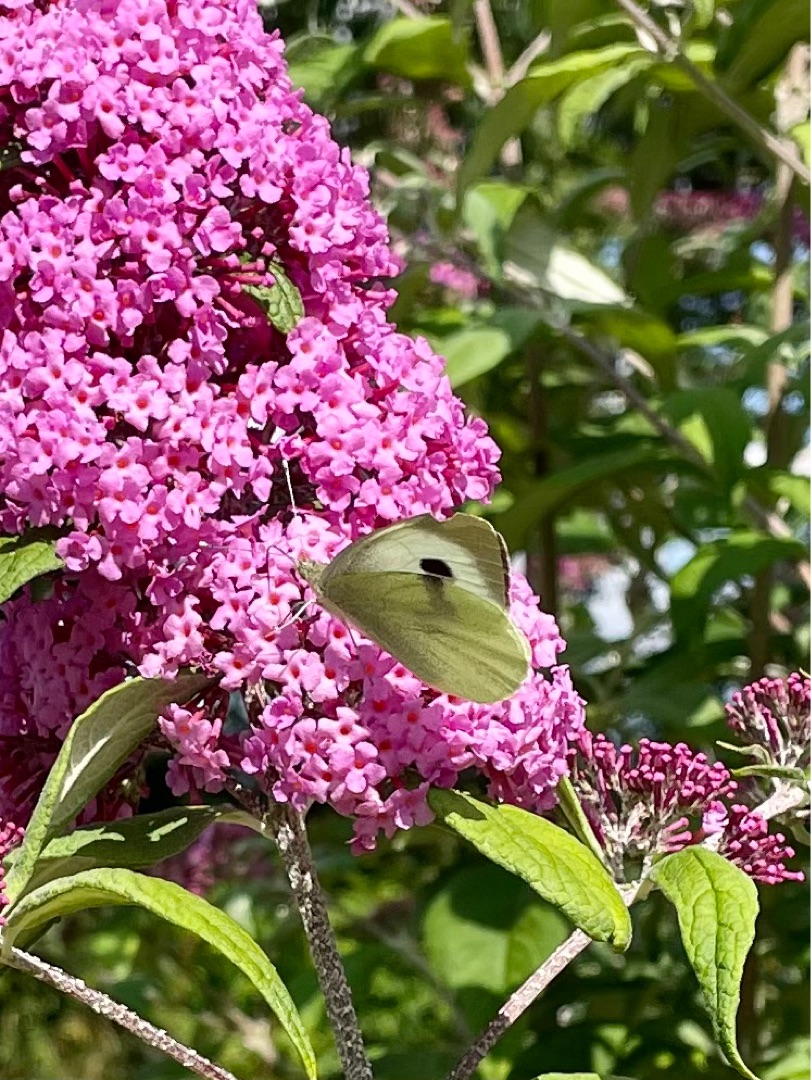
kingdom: Animalia
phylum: Arthropoda
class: Insecta
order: Lepidoptera
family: Pieridae
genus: Pieris
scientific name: Pieris brassicae
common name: Stor kålsommerfugl
